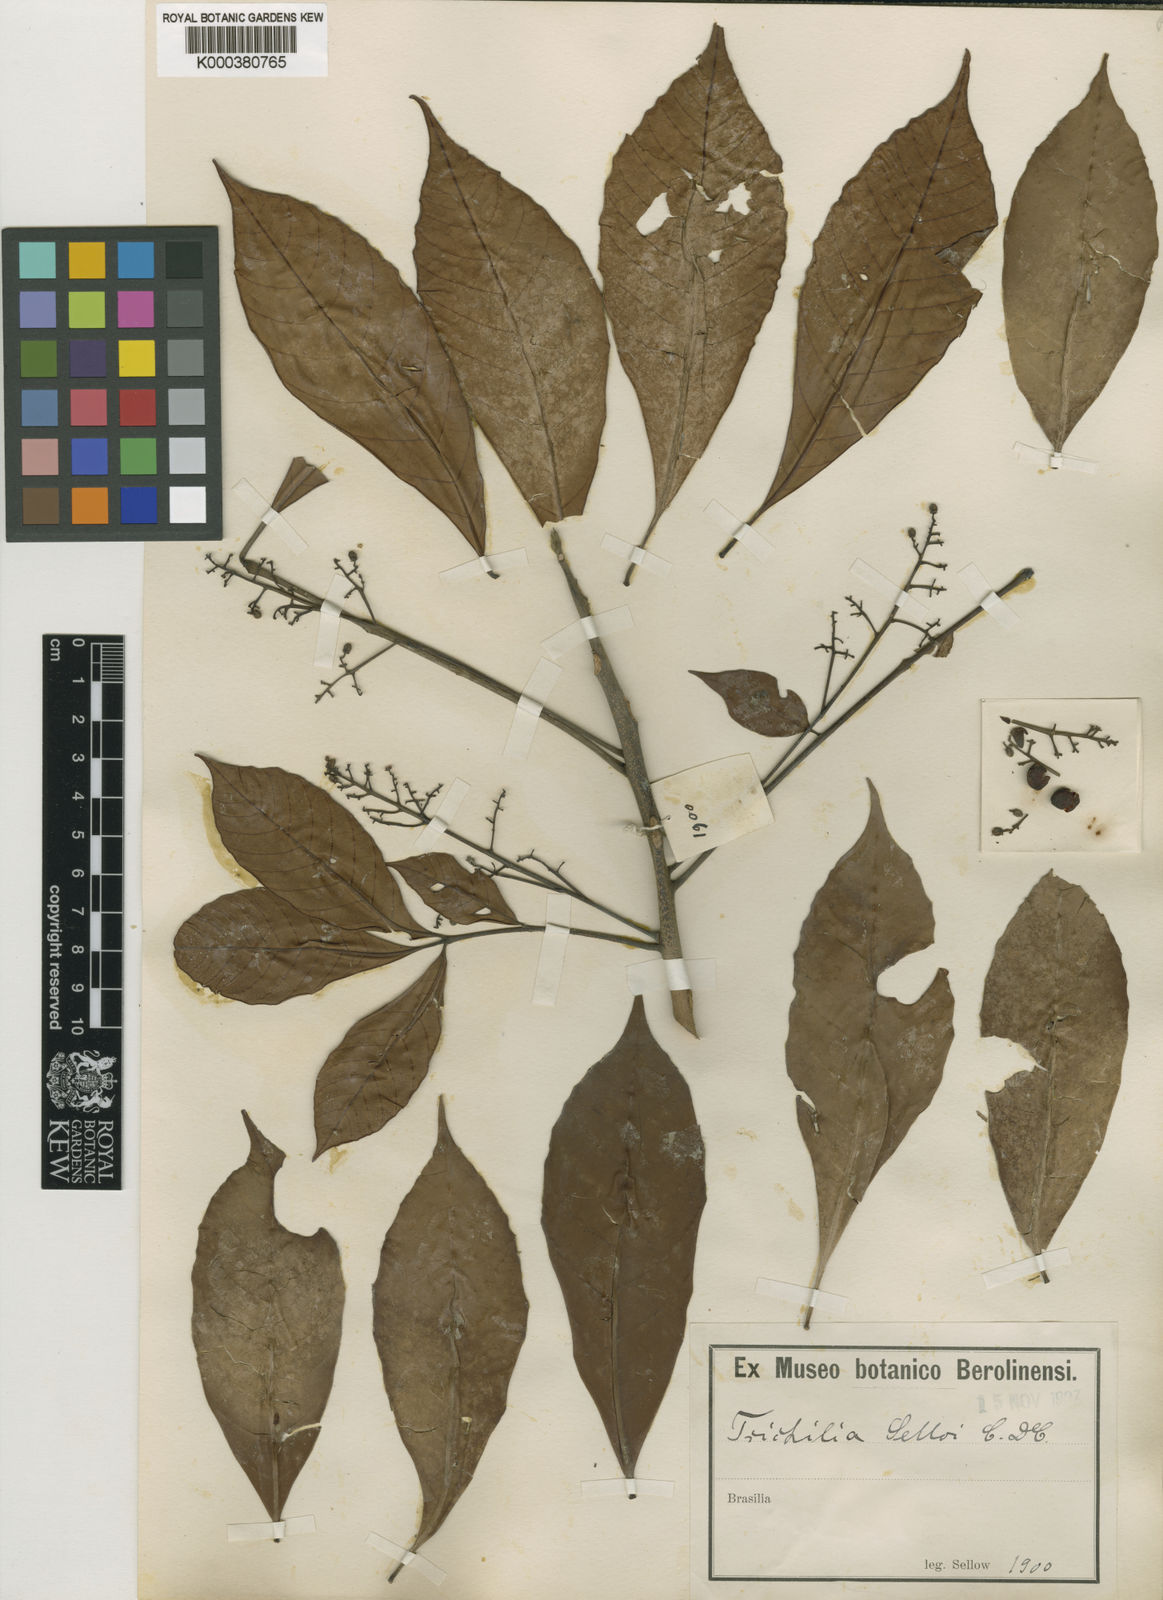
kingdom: Plantae
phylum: Tracheophyta
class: Magnoliopsida
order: Sapindales
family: Meliaceae
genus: Trichilia
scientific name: Trichilia pallens
